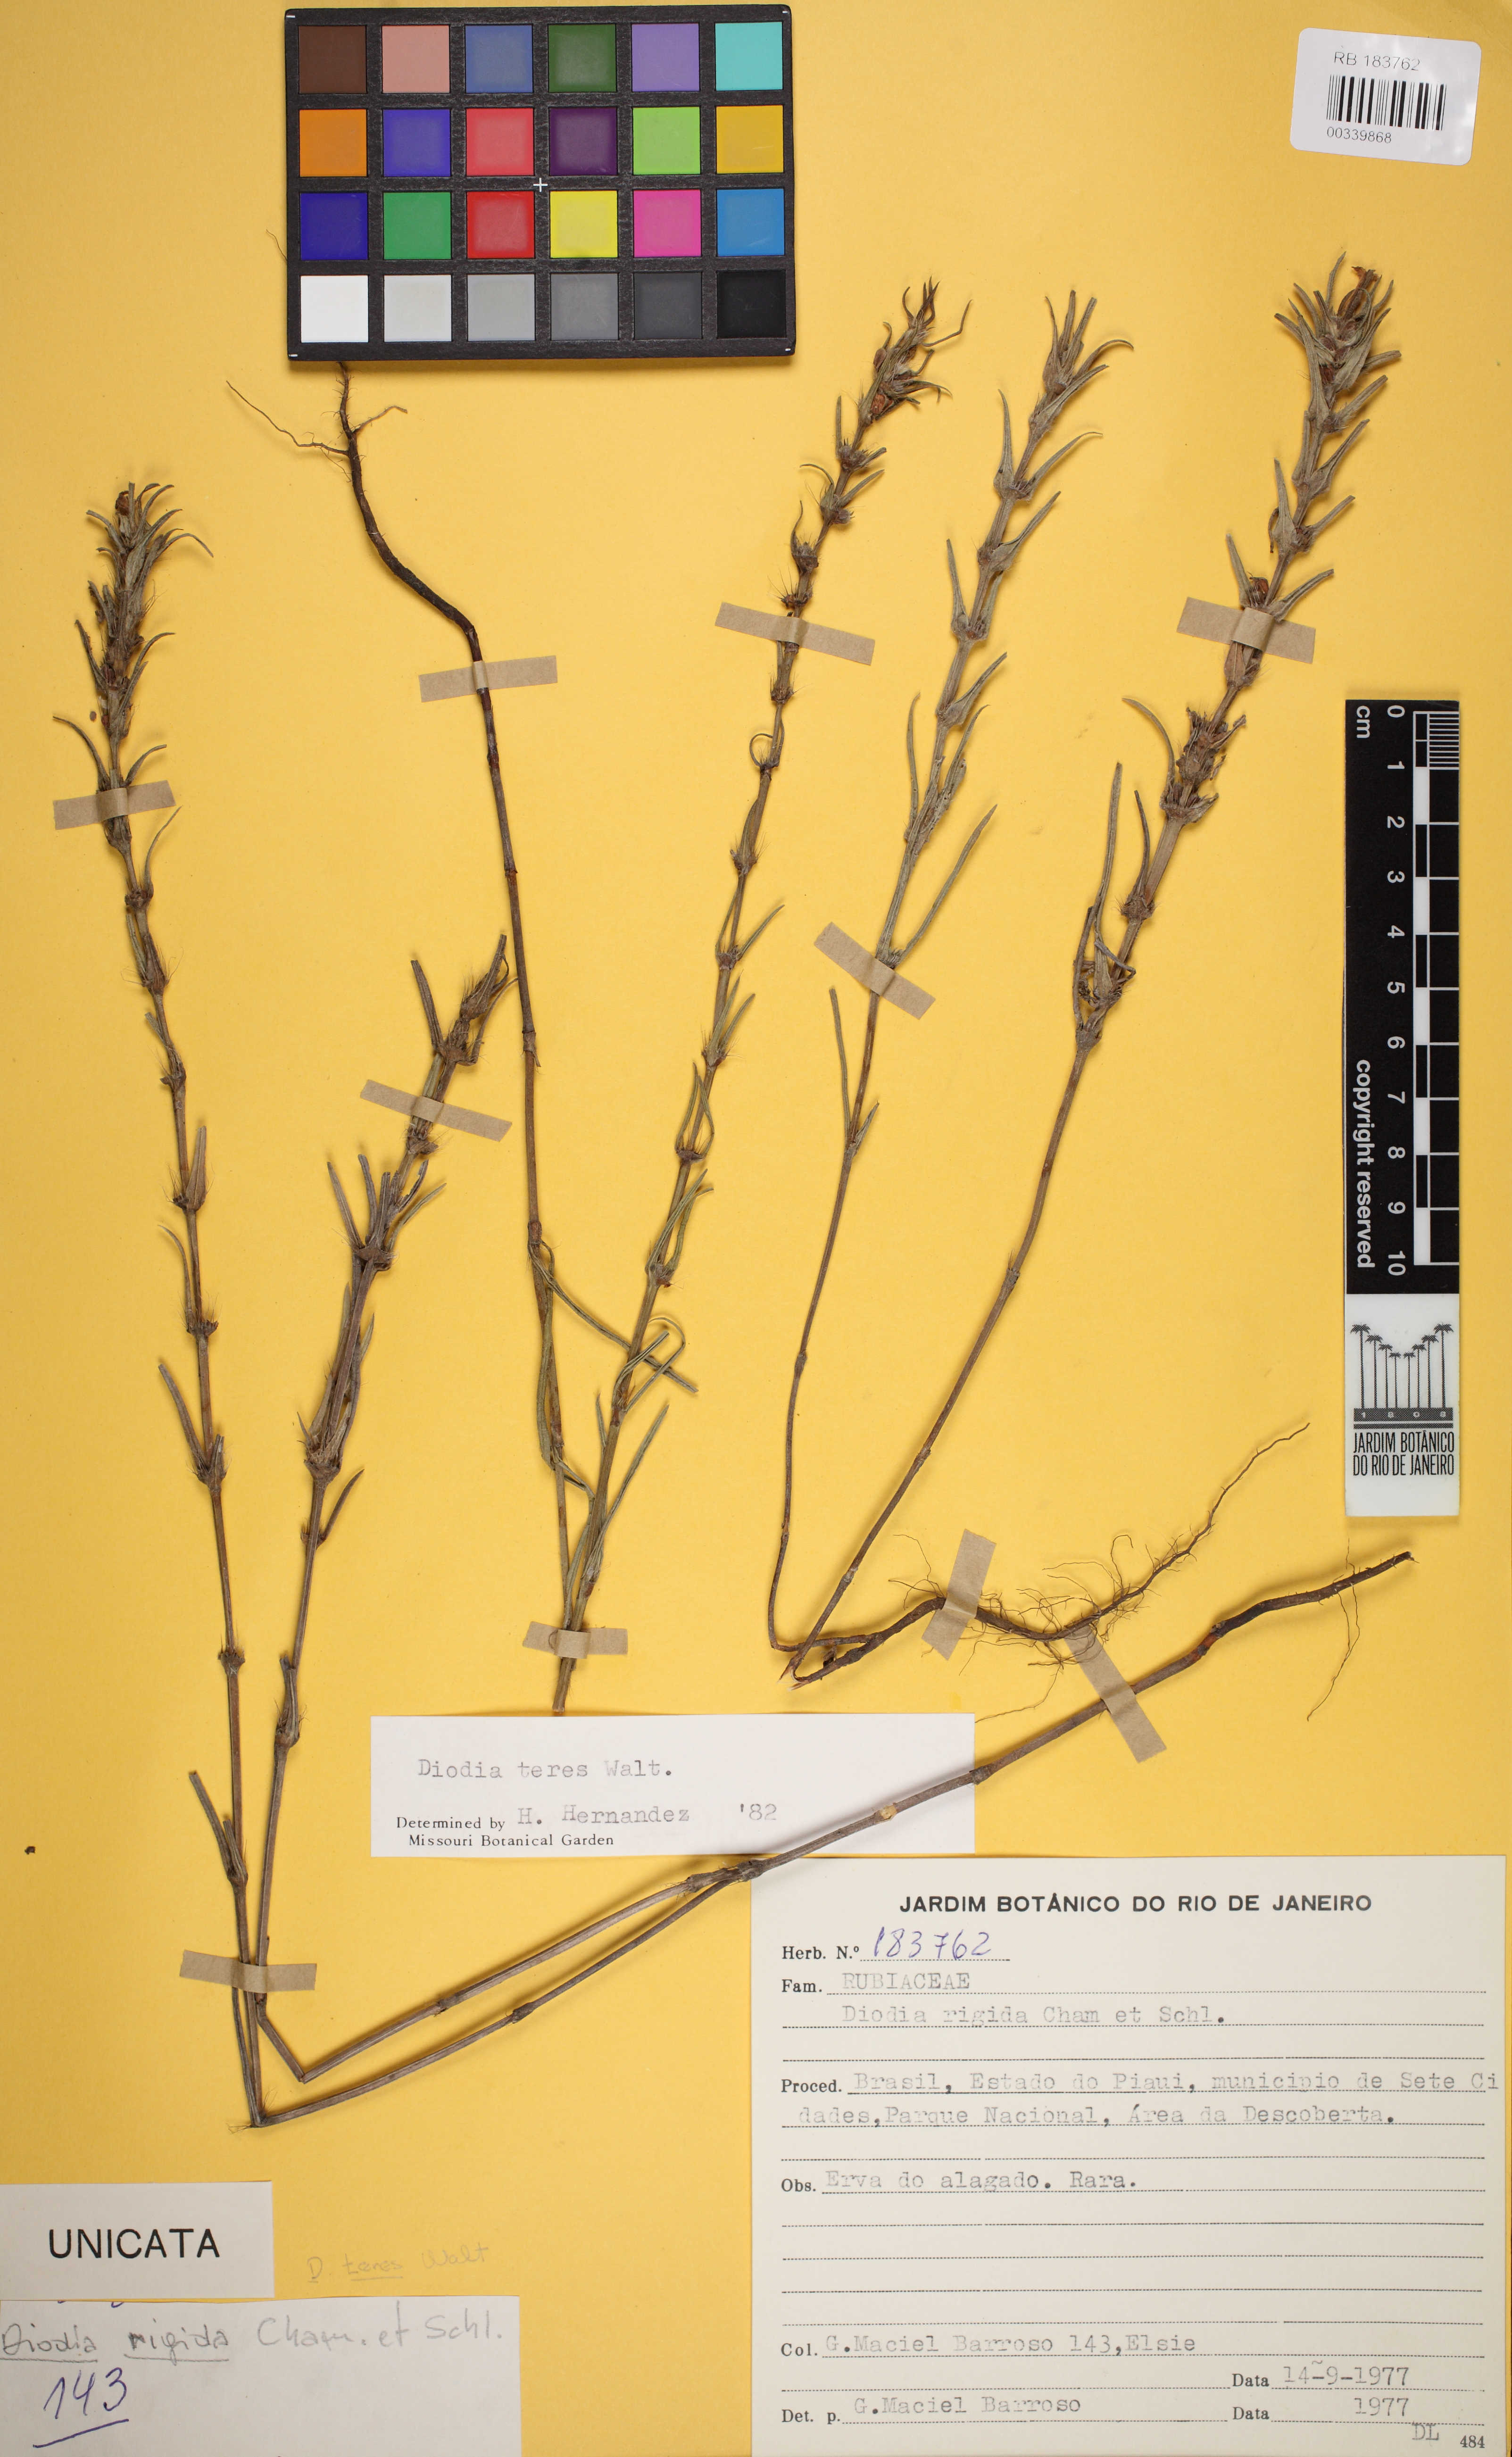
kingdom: Plantae
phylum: Tracheophyta
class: Magnoliopsida
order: Gentianales
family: Rubiaceae
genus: Hexasepalum
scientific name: Hexasepalum teres
